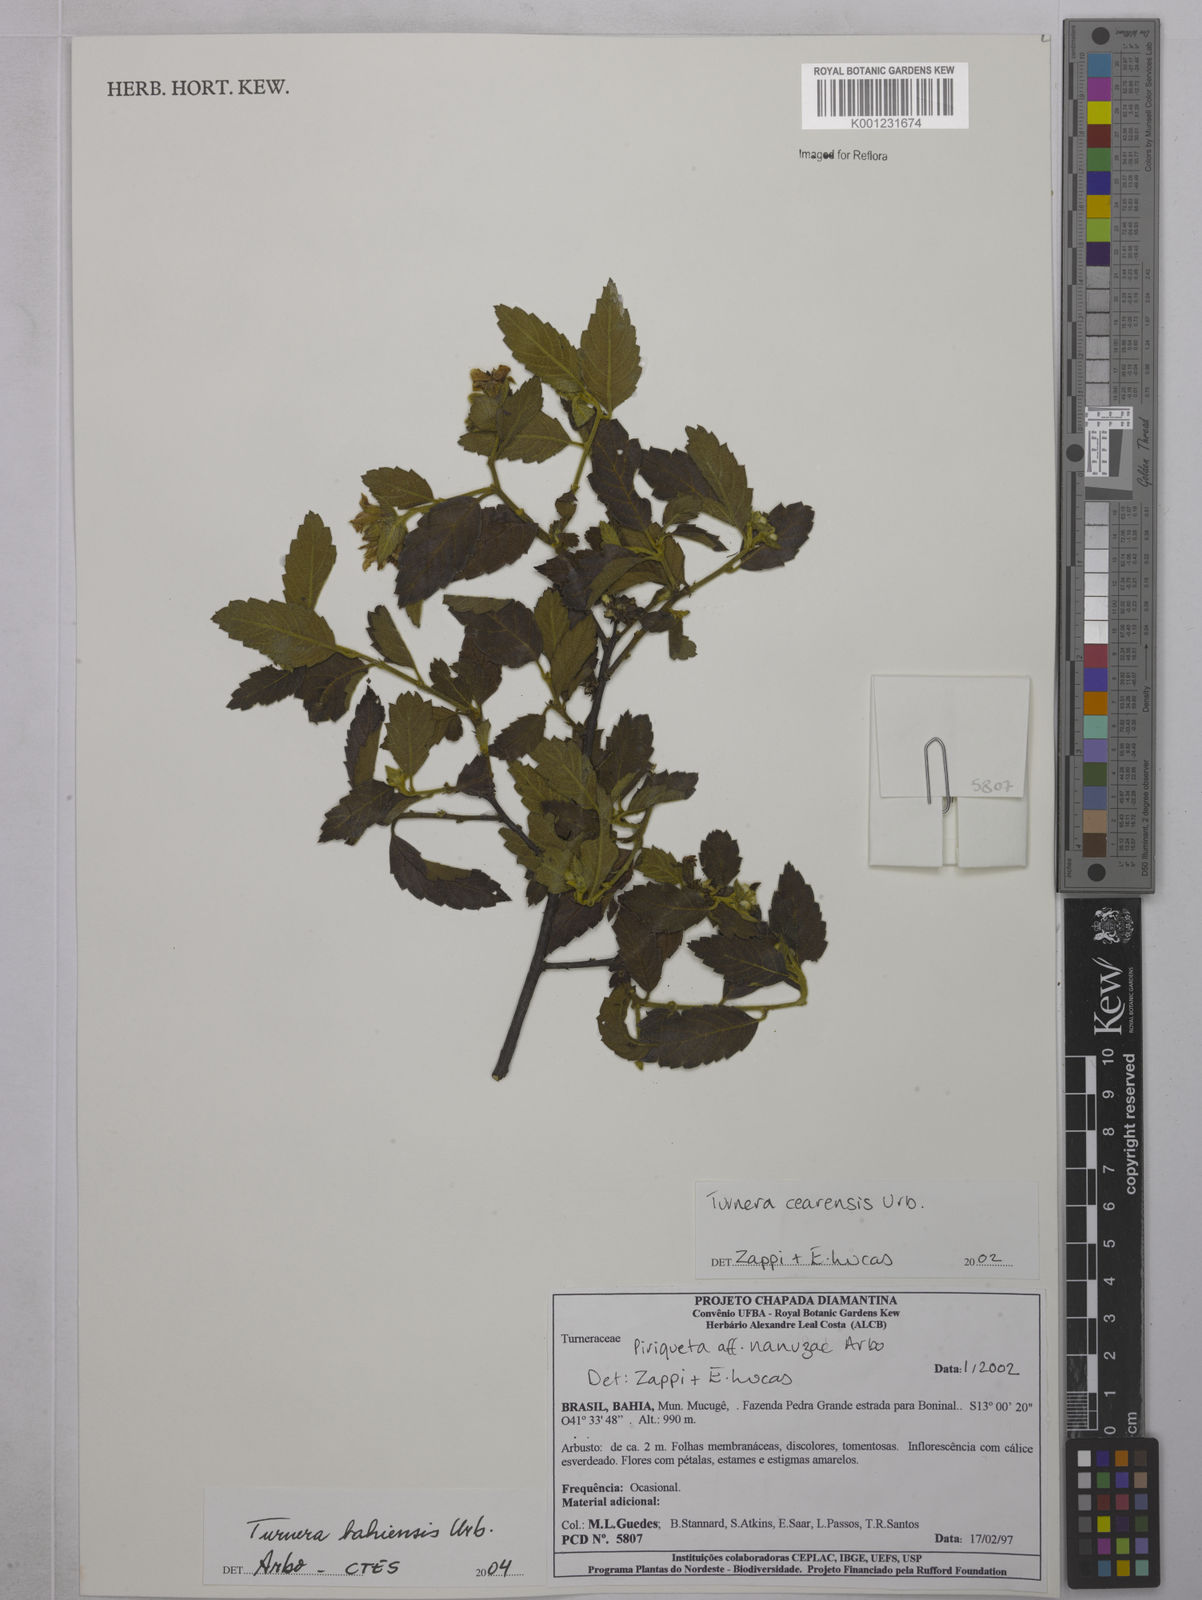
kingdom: Plantae
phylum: Tracheophyta
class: Magnoliopsida
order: Malpighiales
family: Turneraceae
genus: Turnera
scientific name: Turnera bahiensis
